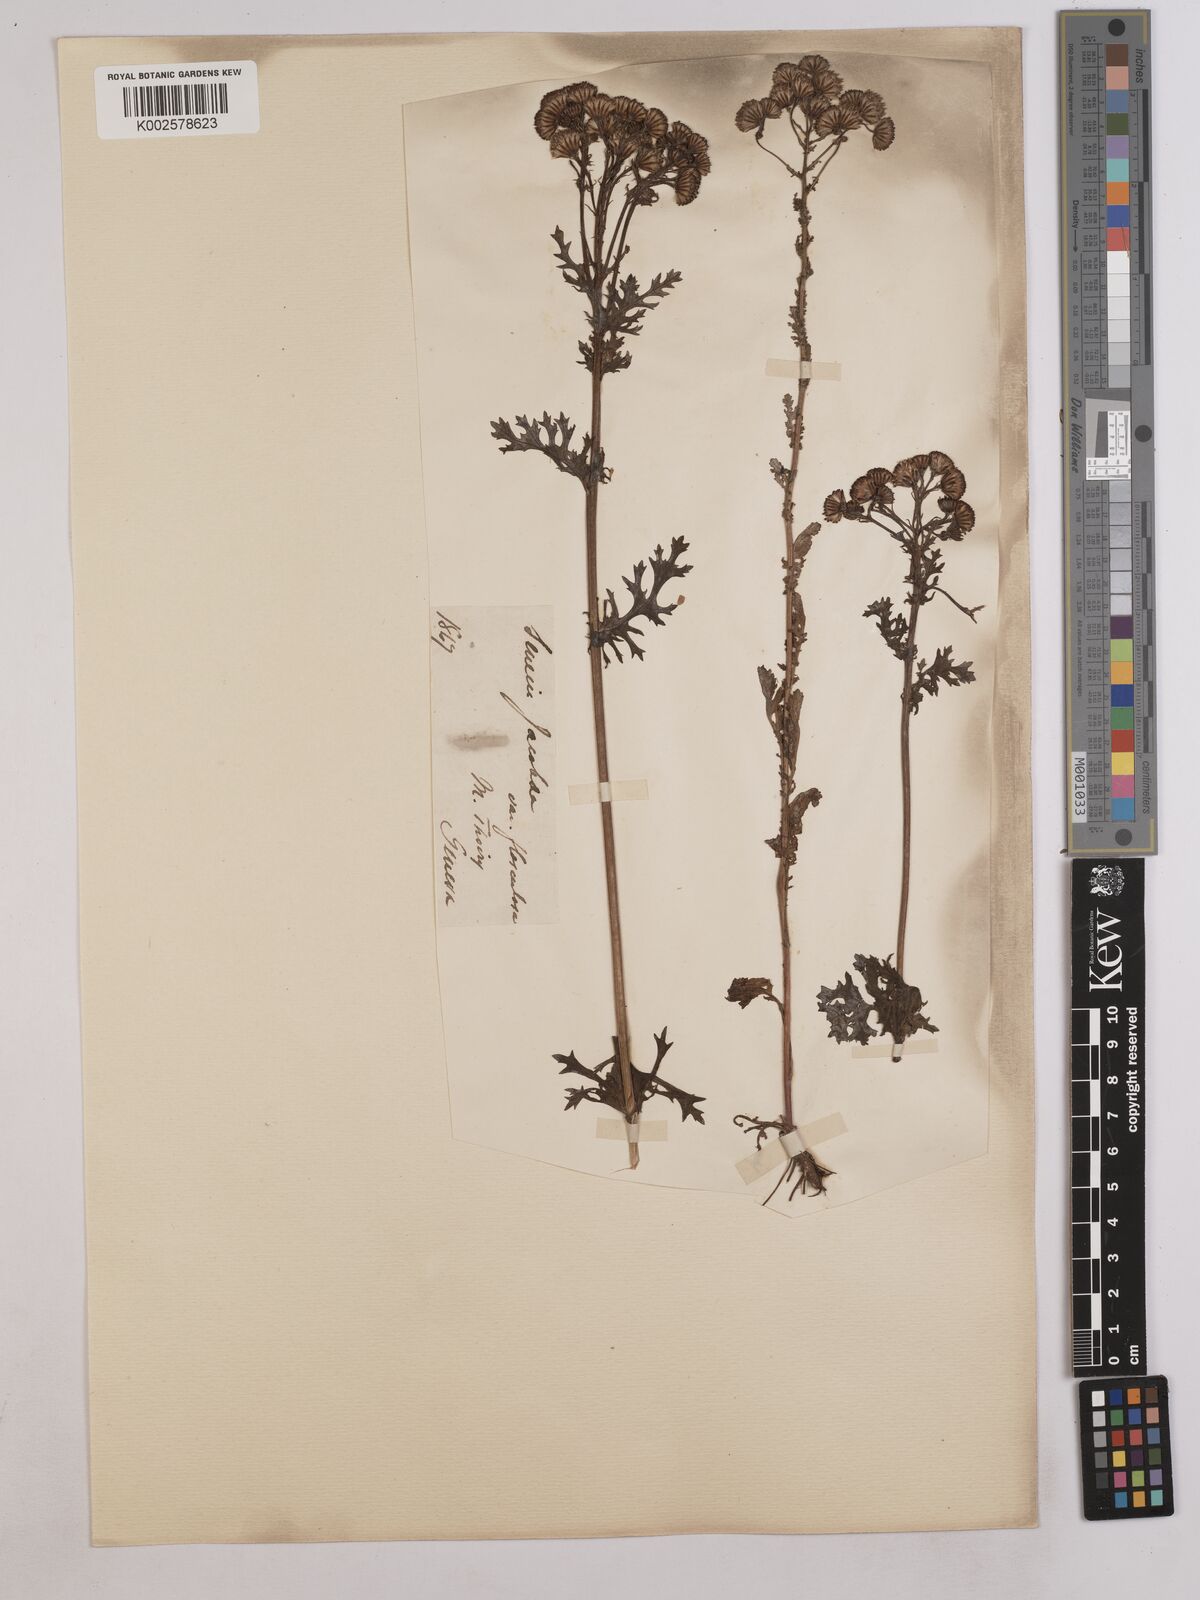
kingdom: Plantae
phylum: Tracheophyta
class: Magnoliopsida
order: Asterales
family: Asteraceae
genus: Jacobaea
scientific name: Jacobaea vulgaris
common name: Stinking willie
